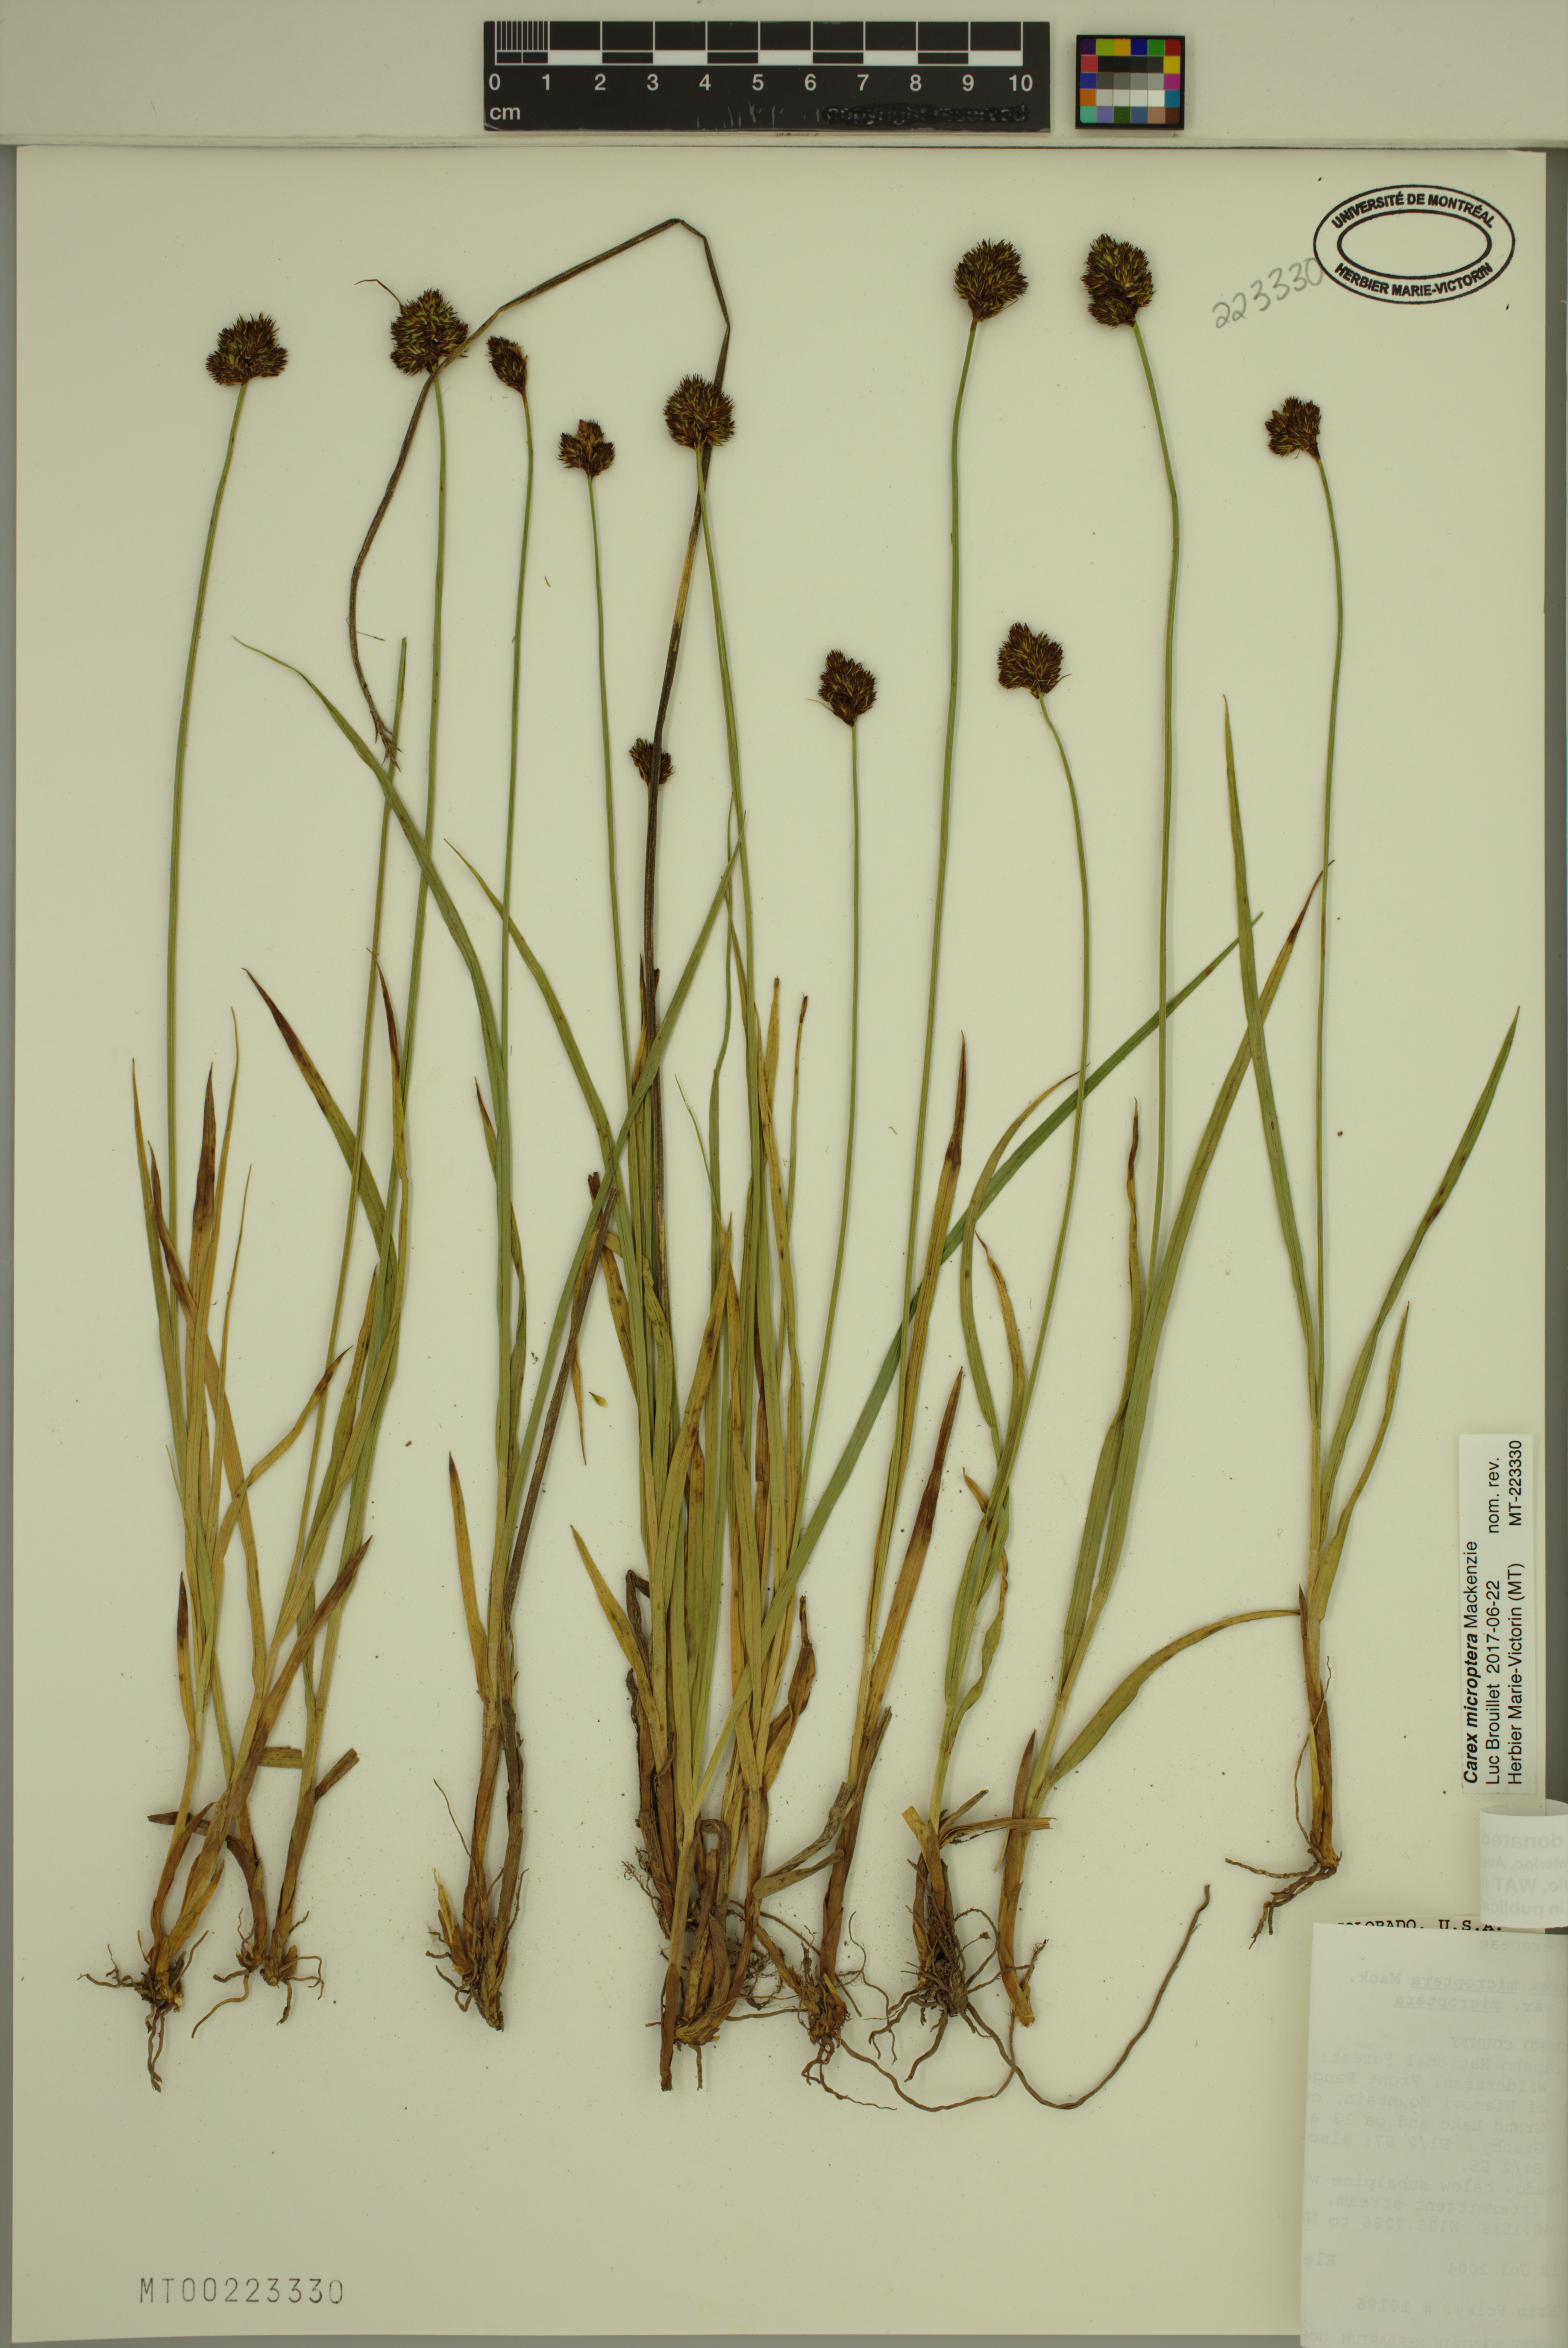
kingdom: Plantae
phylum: Tracheophyta
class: Liliopsida
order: Poales
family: Cyperaceae
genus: Carex
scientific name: Carex microptera
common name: Oval-headed sedge
